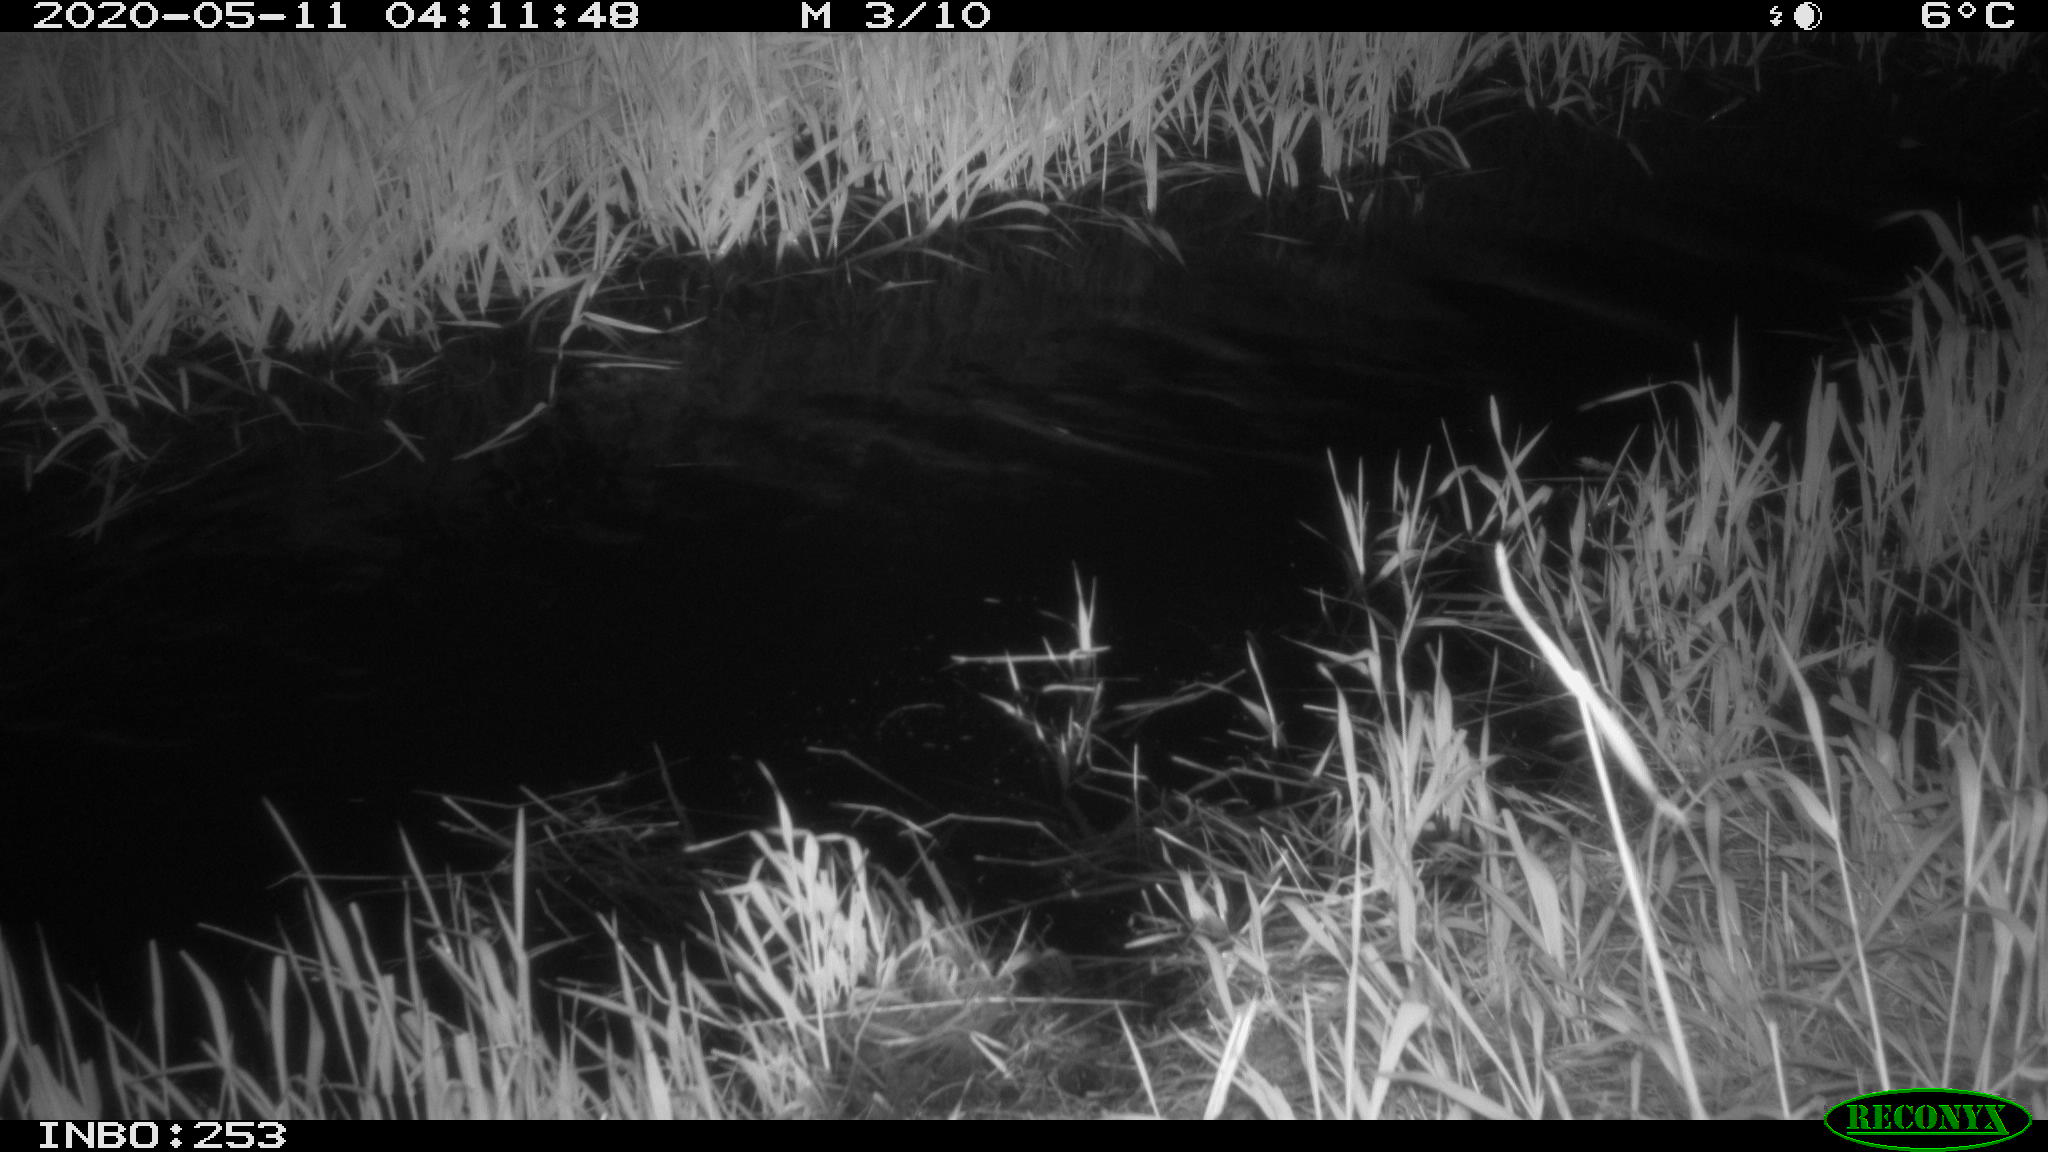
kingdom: Animalia
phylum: Chordata
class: Aves
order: Anseriformes
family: Anatidae
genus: Anas
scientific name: Anas platyrhynchos
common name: Mallard
